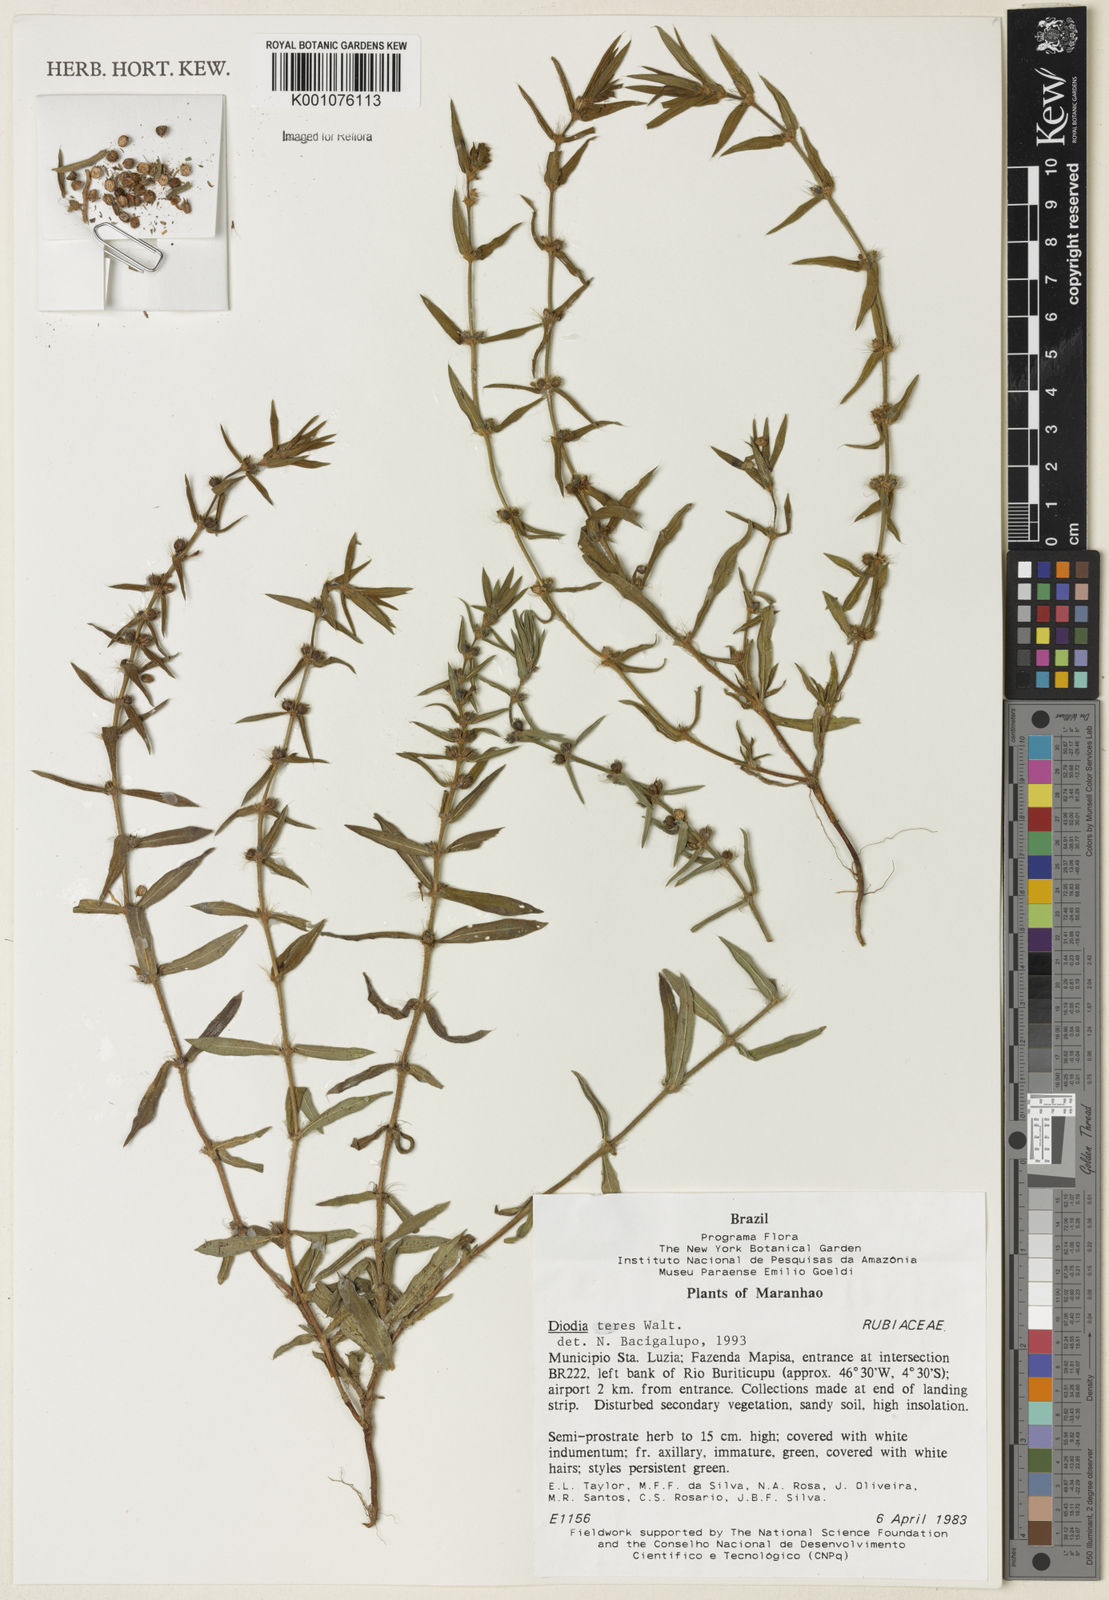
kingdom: Plantae
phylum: Tracheophyta
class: Magnoliopsida
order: Gentianales
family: Rubiaceae
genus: Hexasepalum
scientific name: Hexasepalum teres
